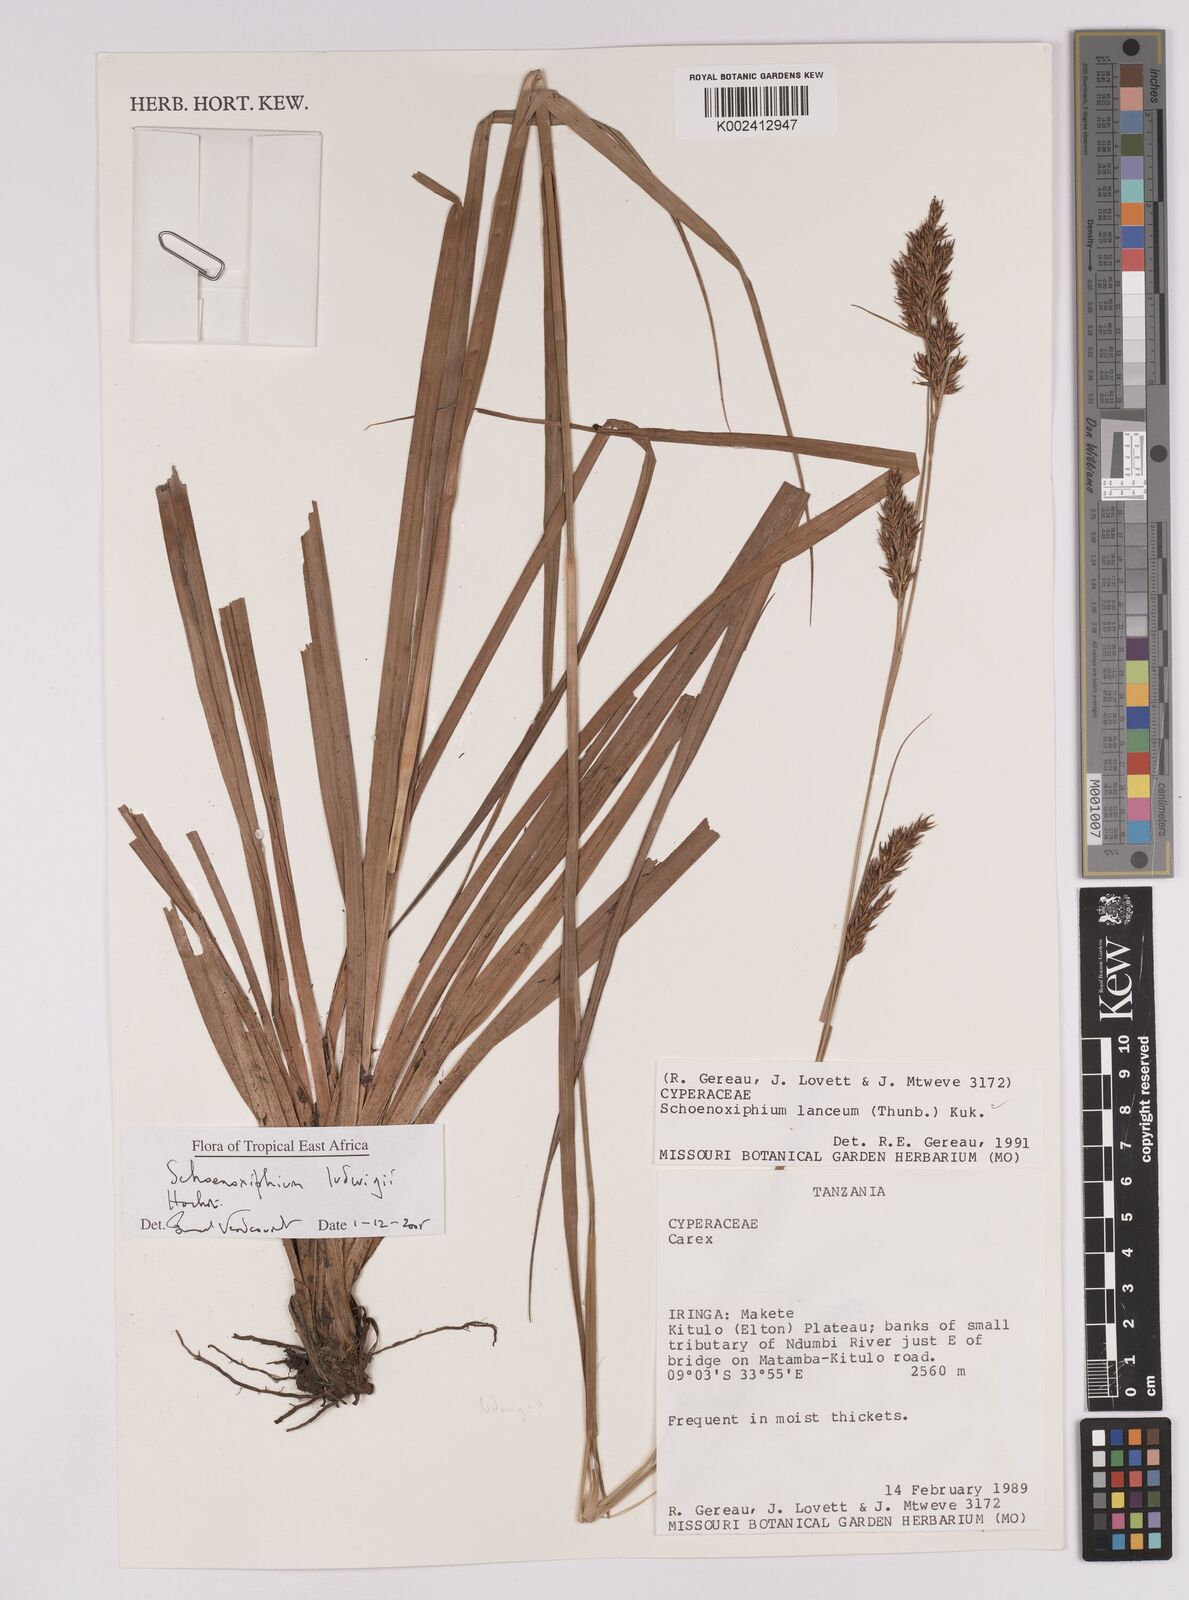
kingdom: Plantae
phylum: Tracheophyta
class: Liliopsida
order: Poales
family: Cyperaceae
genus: Carex
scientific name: Carex ludwigii
